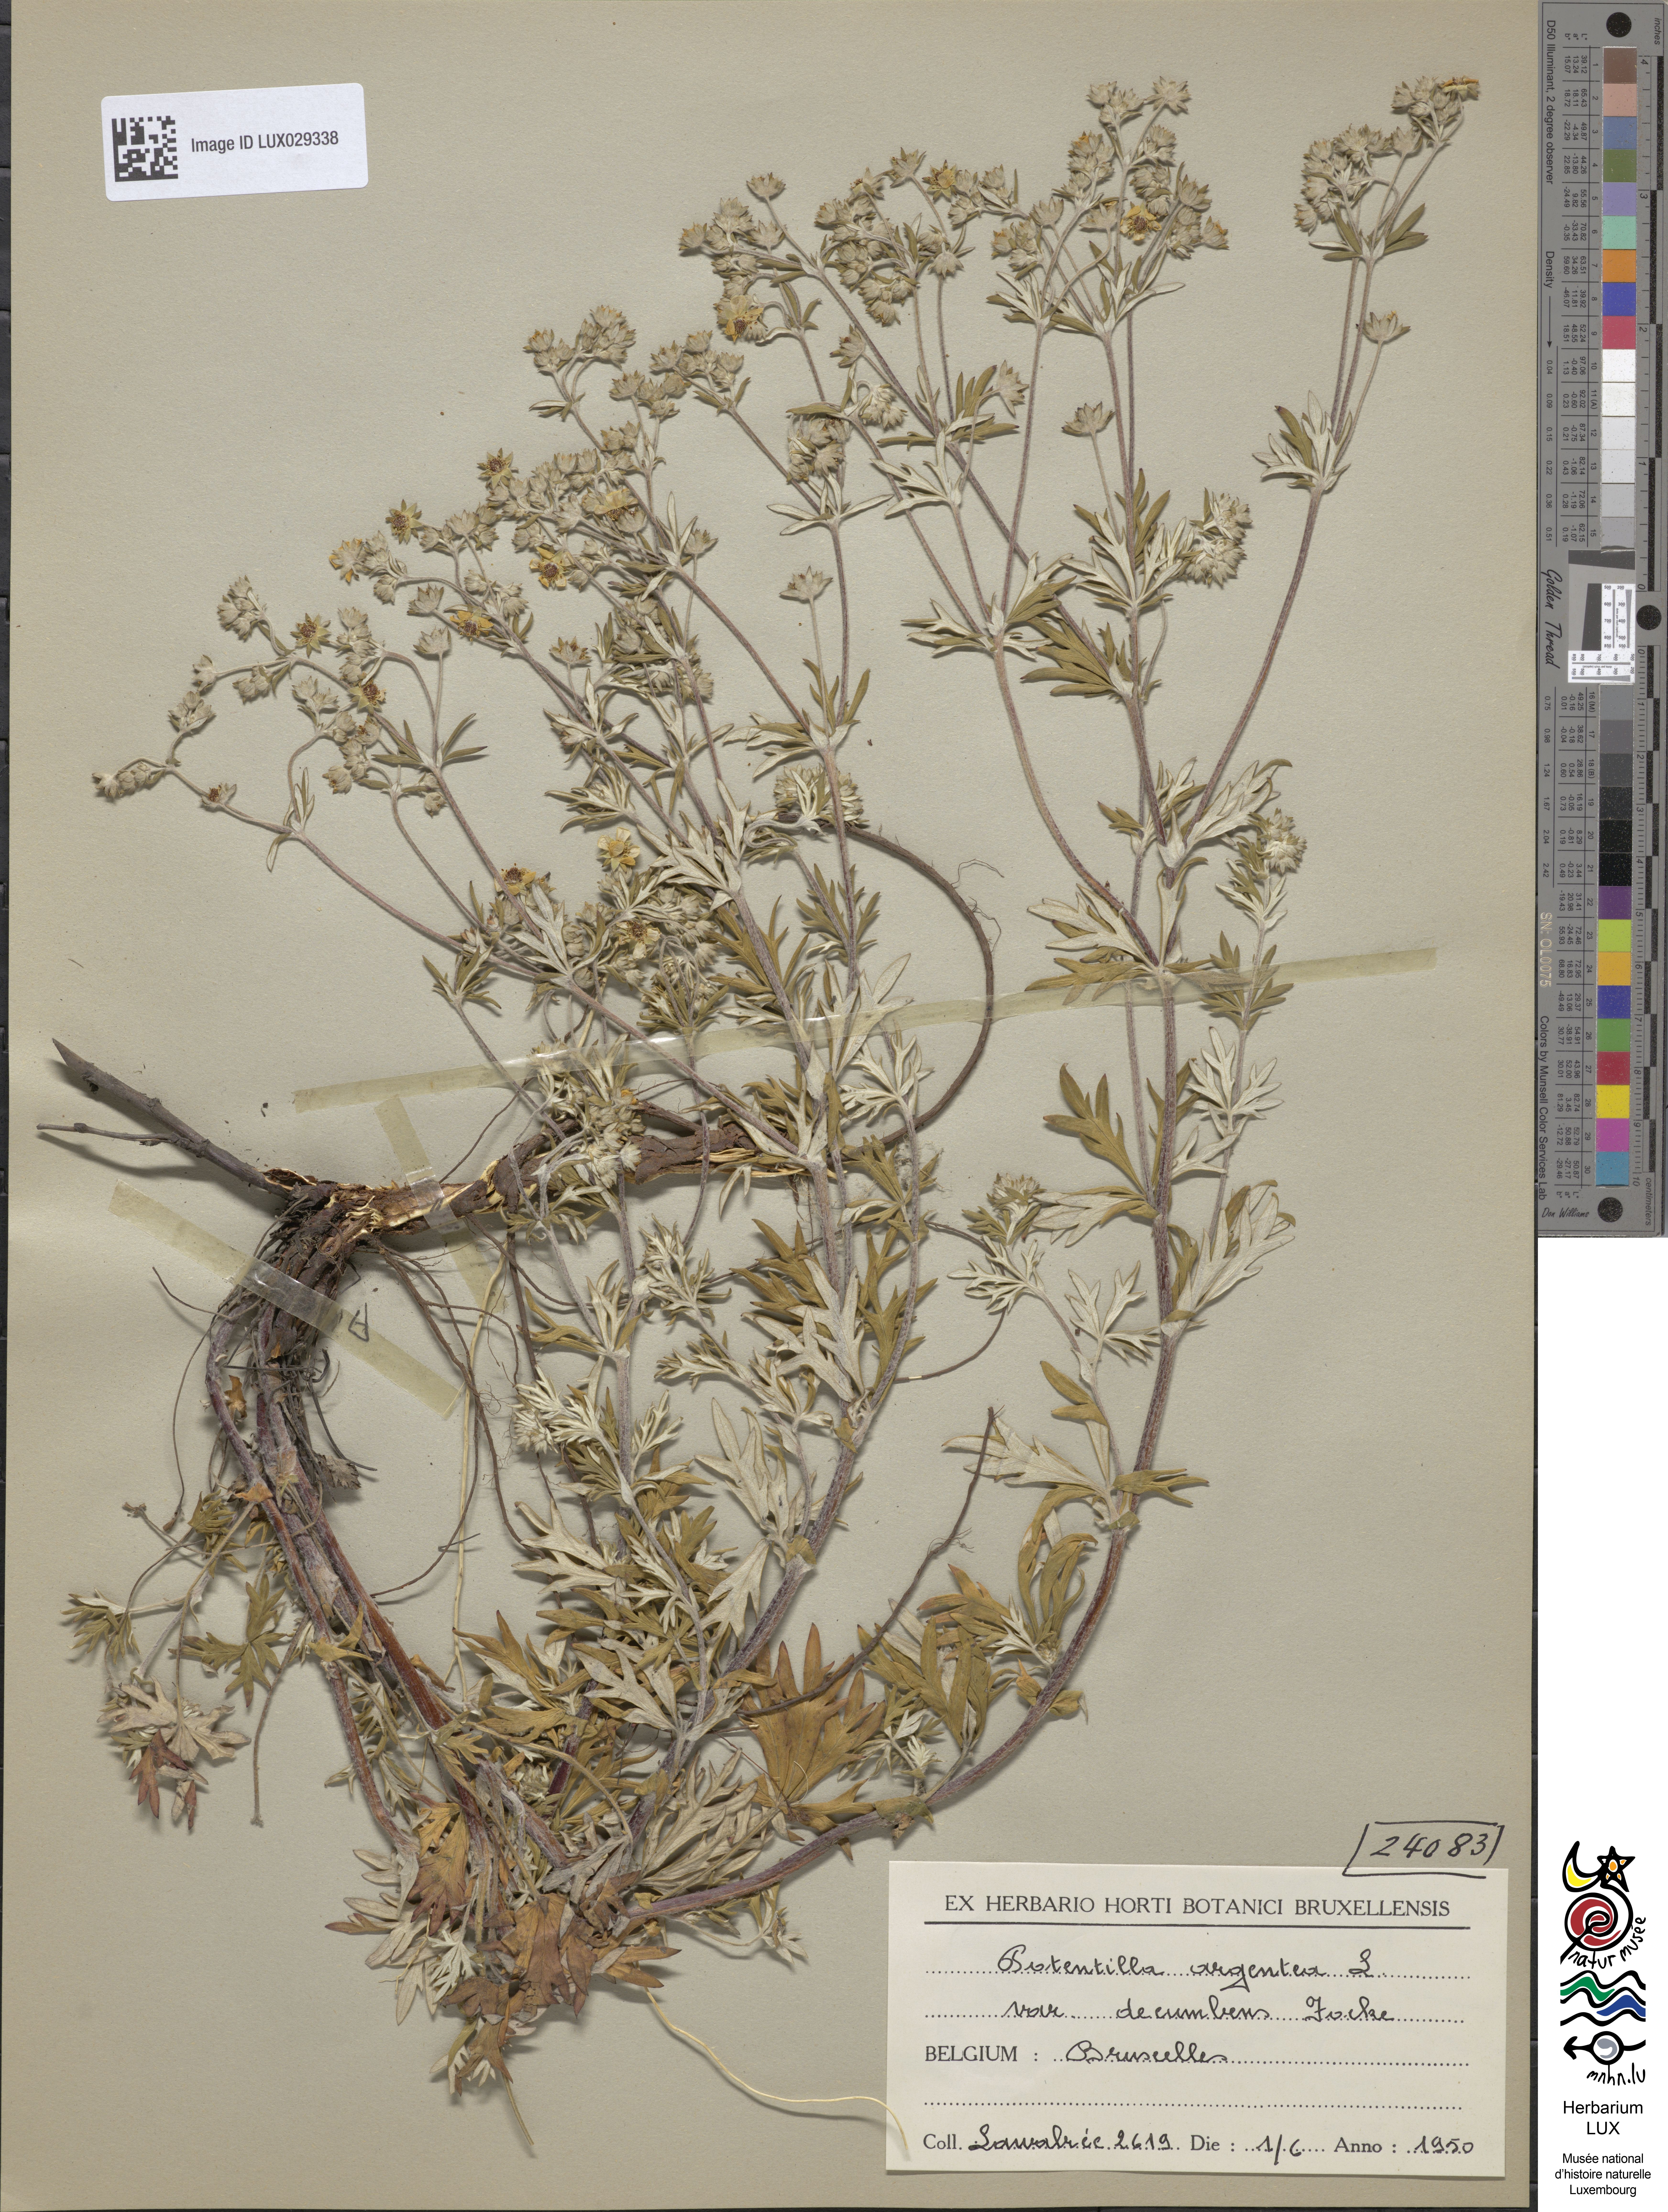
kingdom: Plantae
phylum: Tracheophyta
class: Magnoliopsida
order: Rosales
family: Rosaceae
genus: Potentilla
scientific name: Potentilla argentea
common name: Hoary cinquefoil
